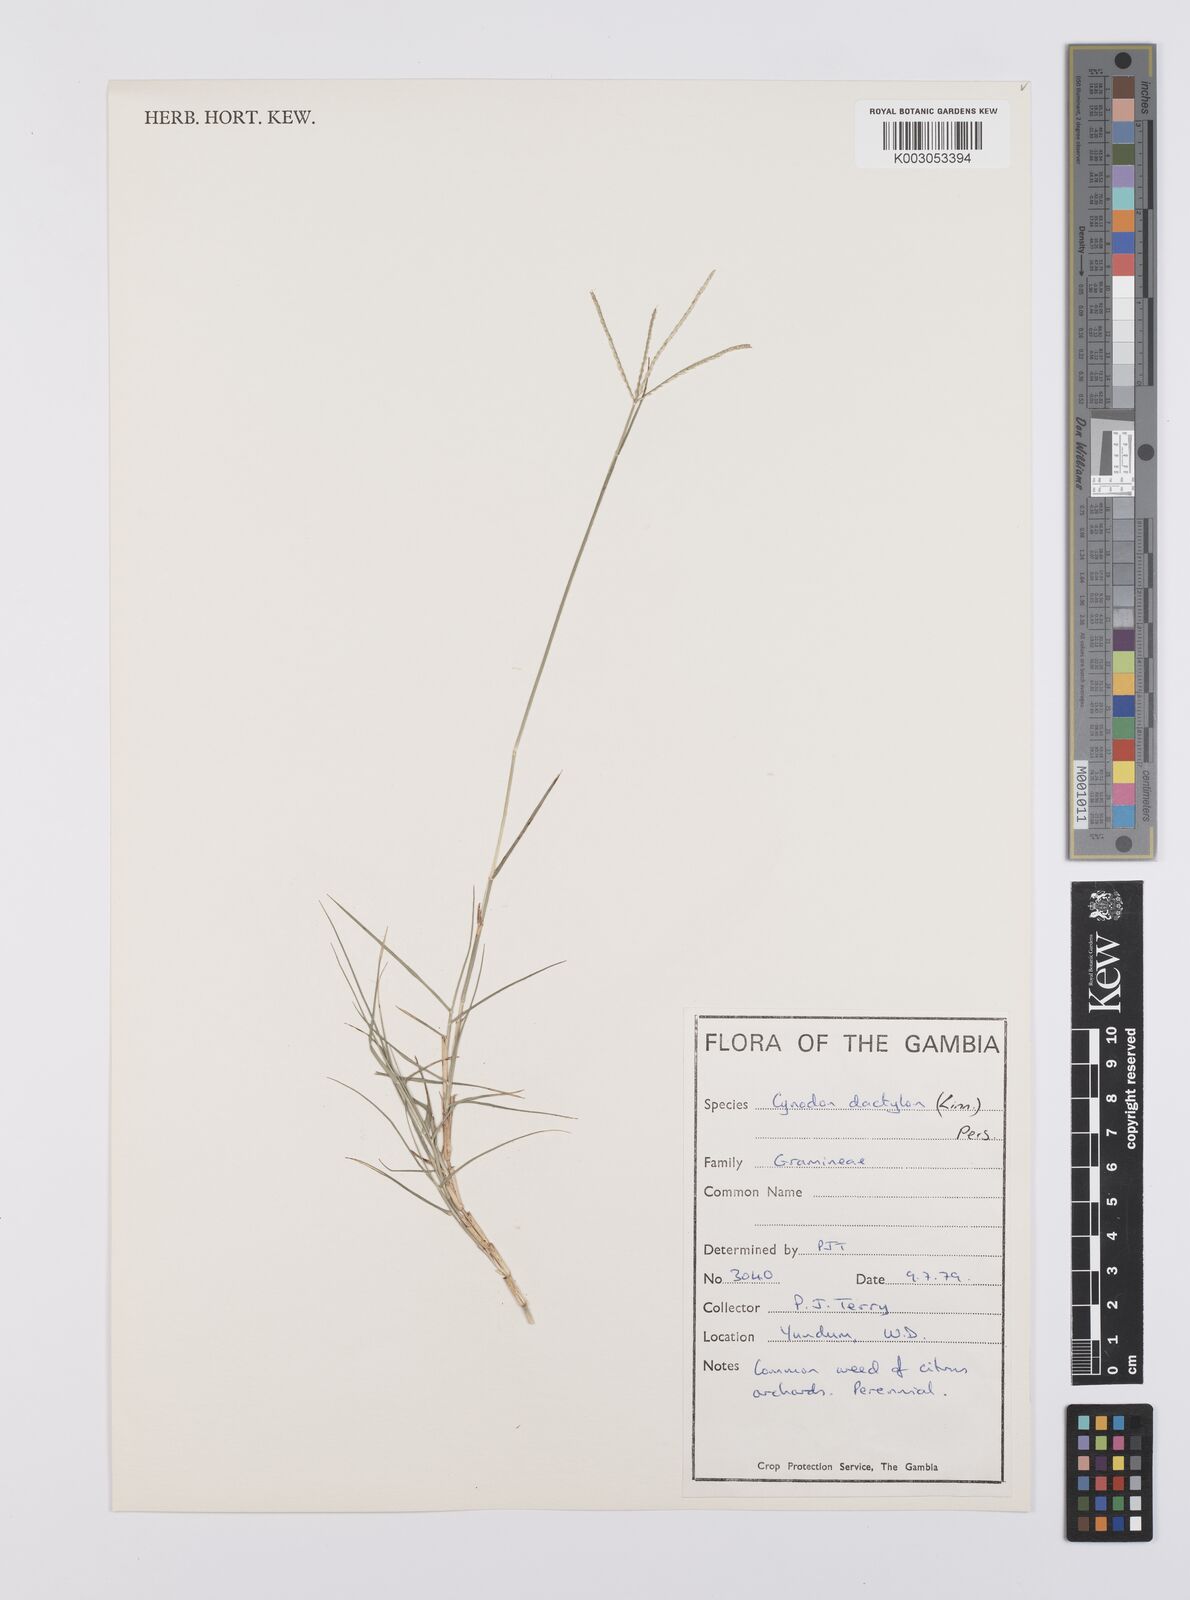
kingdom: Plantae
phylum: Tracheophyta
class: Liliopsida
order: Poales
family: Poaceae
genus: Cynodon
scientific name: Cynodon dactylon
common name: Bermuda grass
